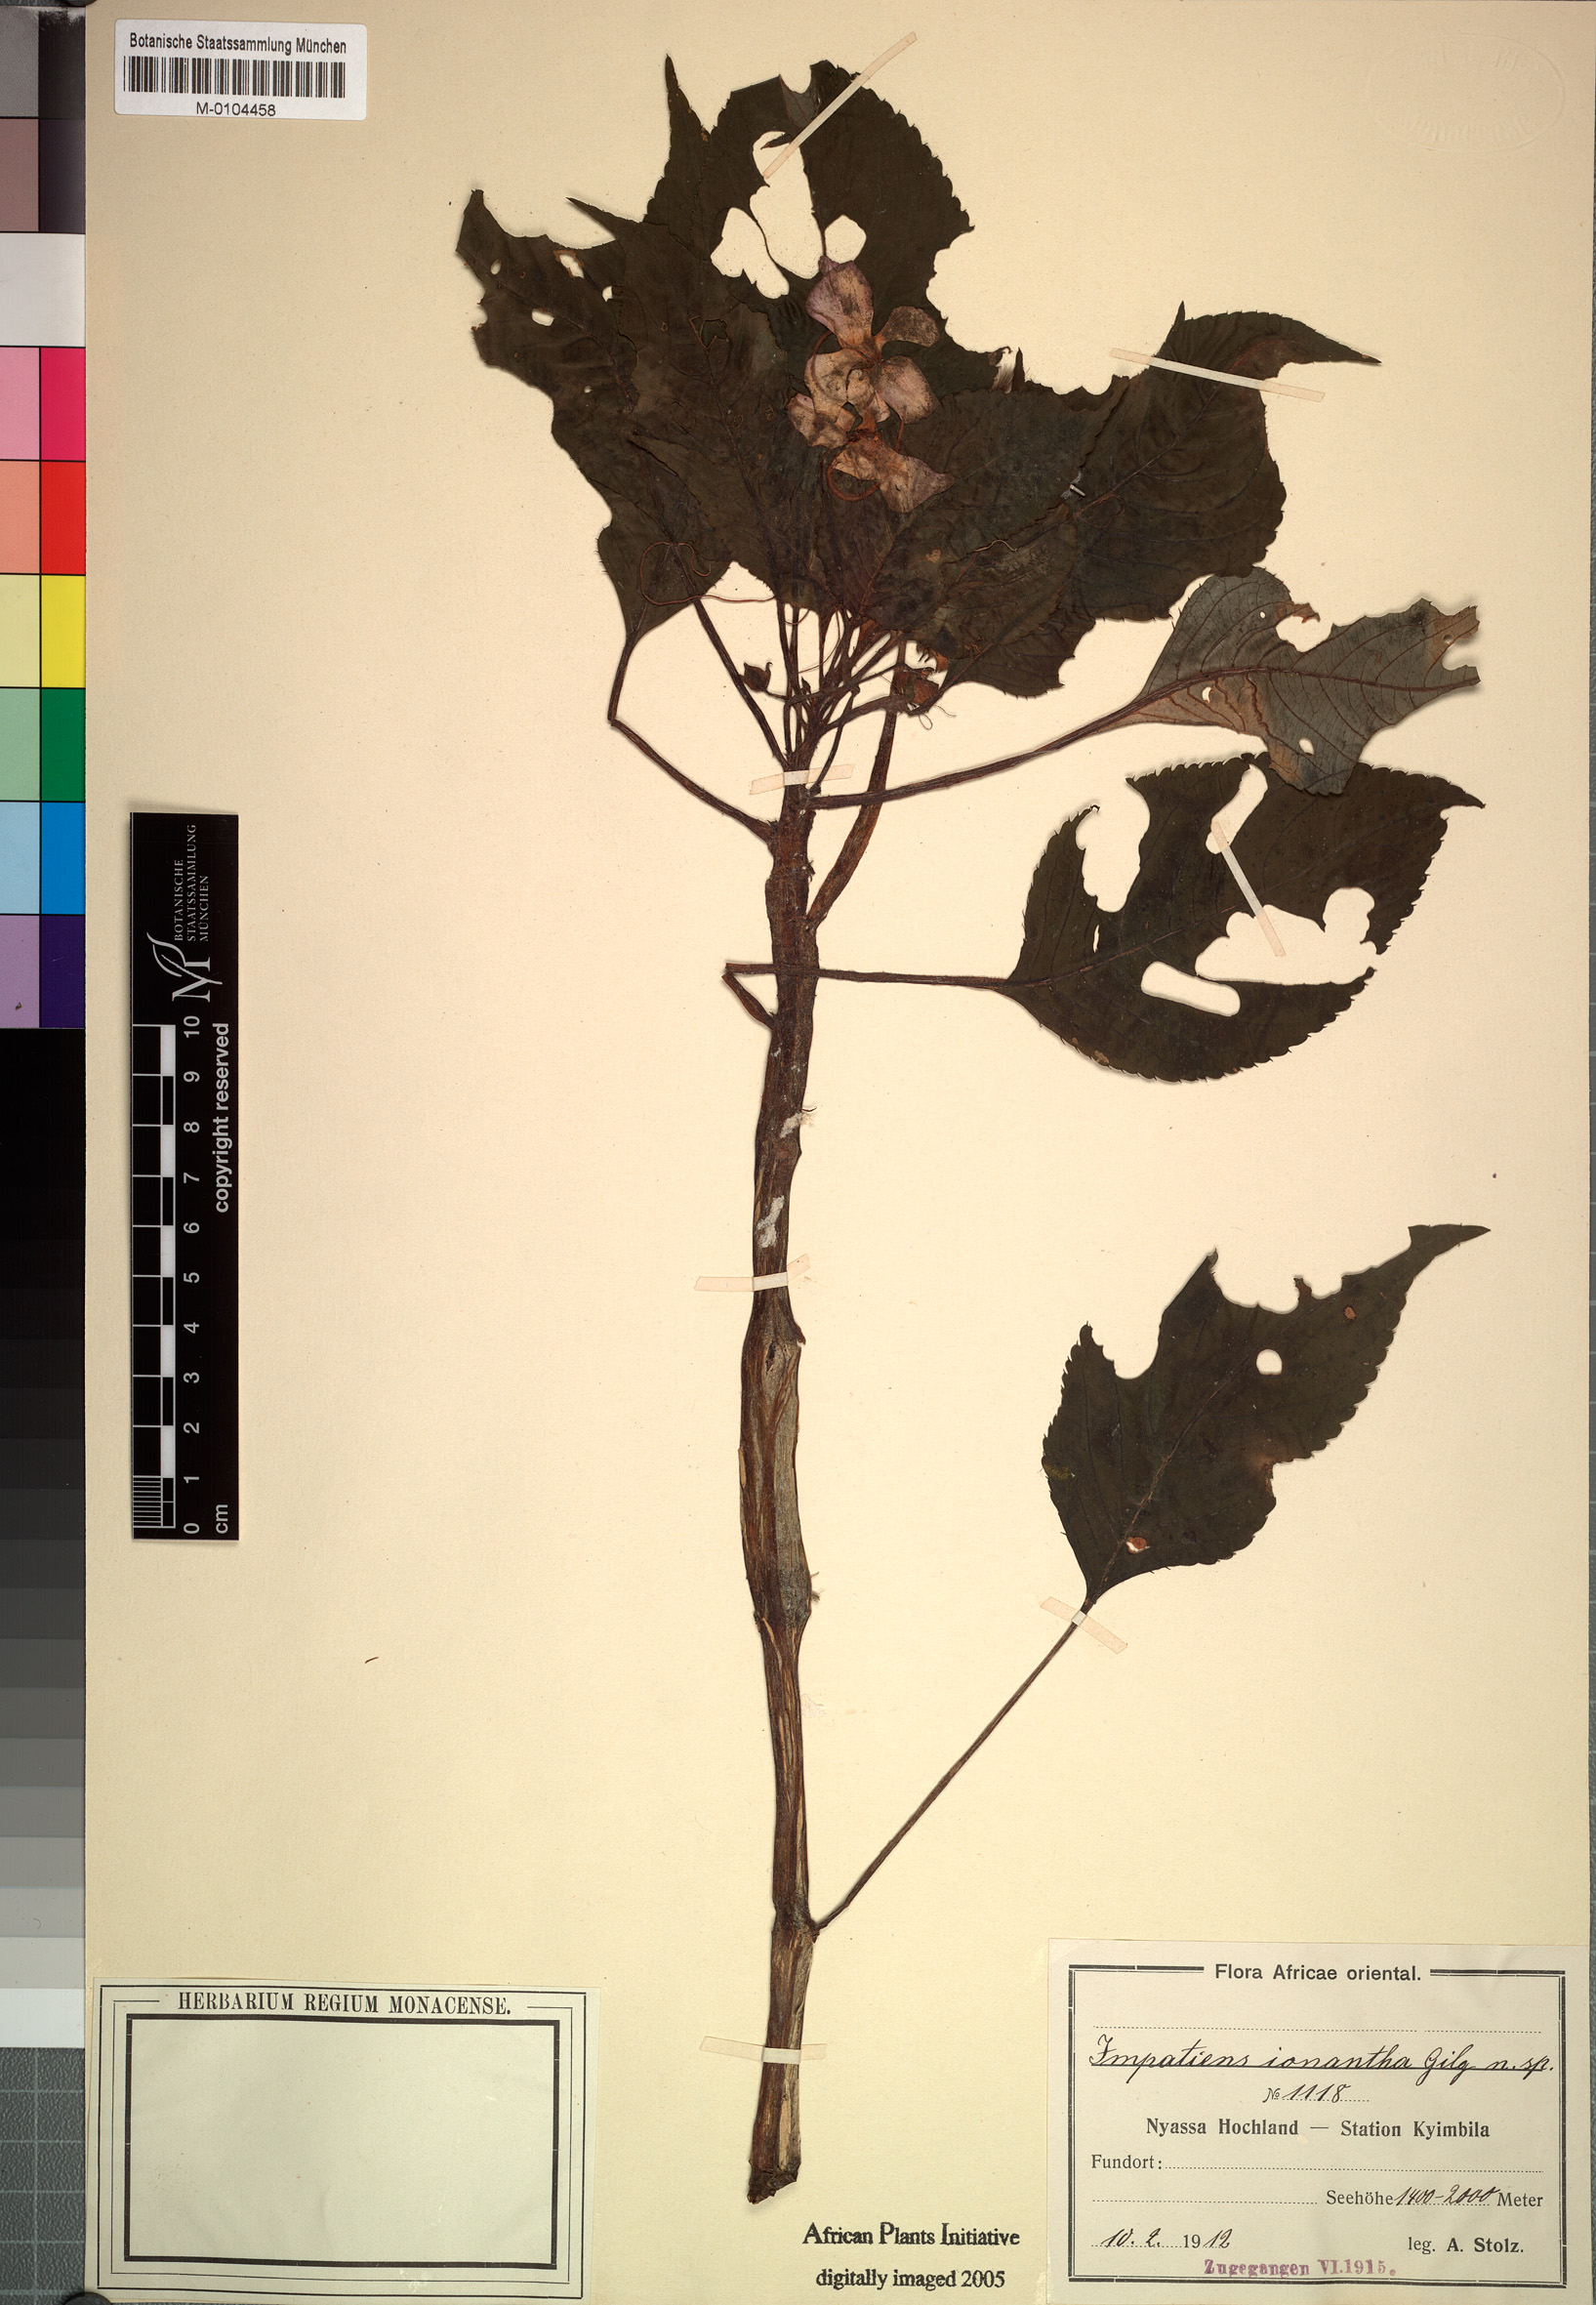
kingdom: Plantae
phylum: Tracheophyta
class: Magnoliopsida
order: Ericales
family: Balsaminaceae
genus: Impatiens
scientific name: Impatiens
